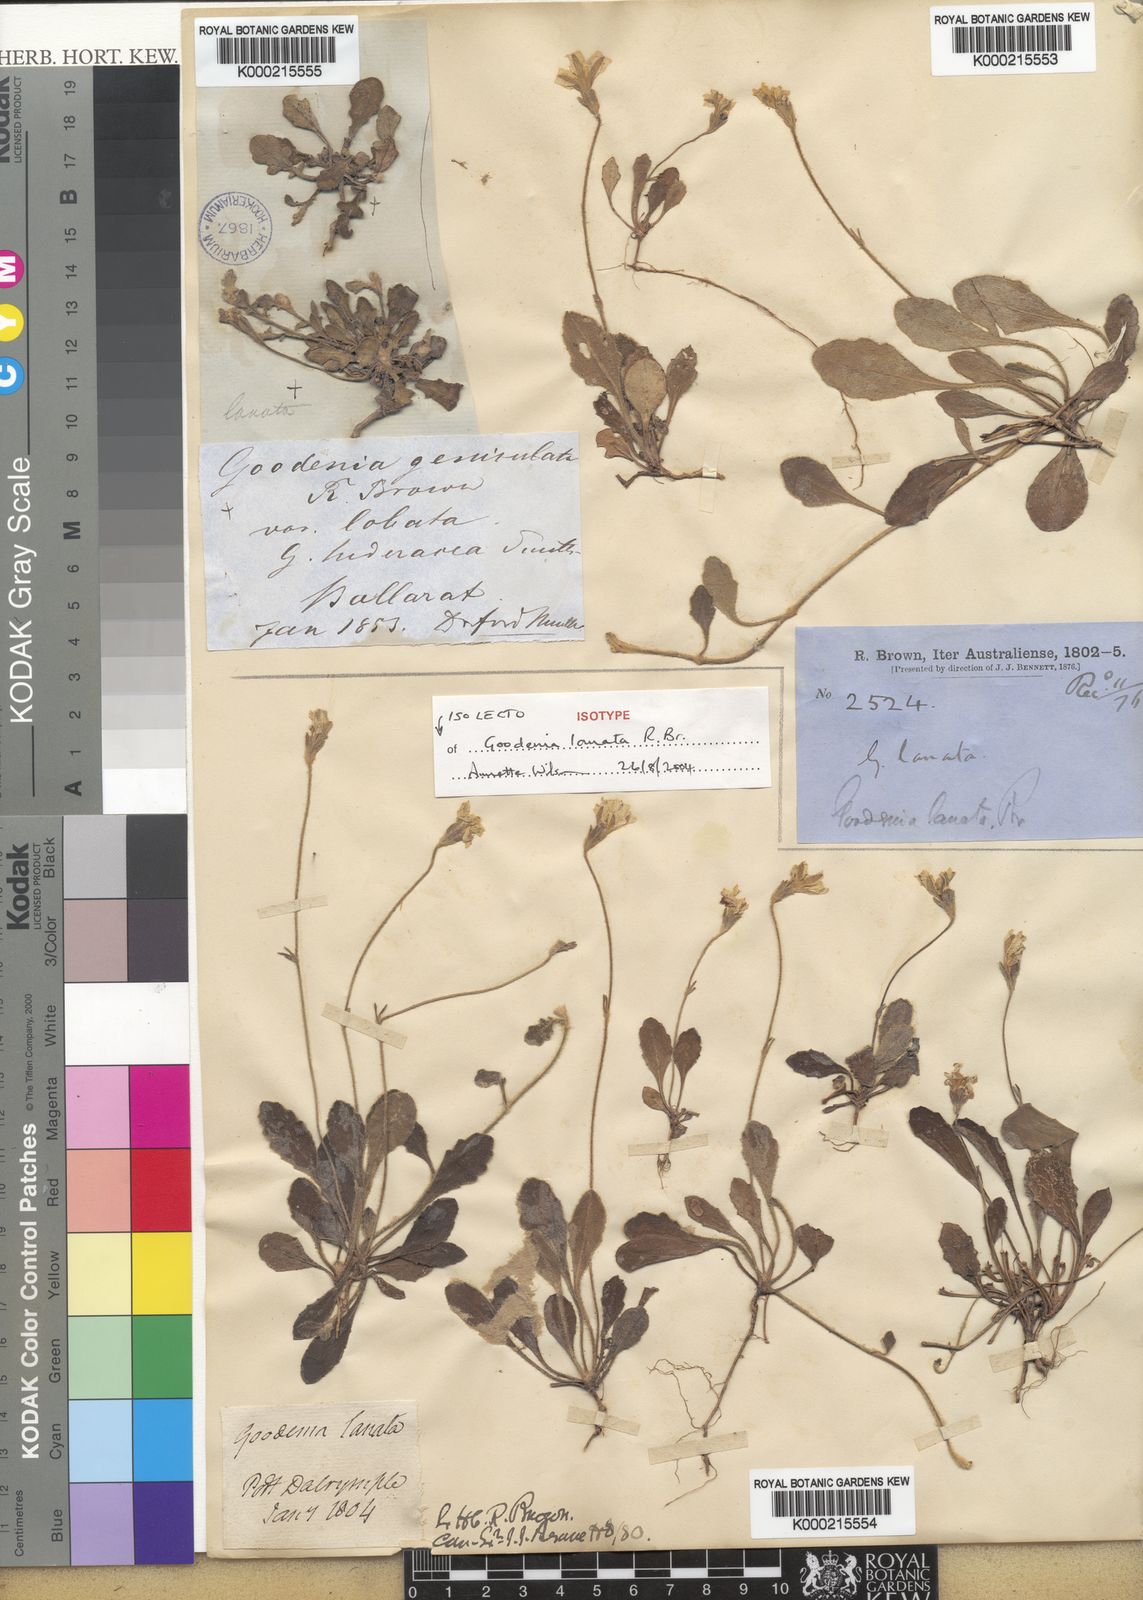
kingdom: Plantae
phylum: Tracheophyta
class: Magnoliopsida
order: Asterales
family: Goodeniaceae
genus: Goodenia
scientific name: Goodenia lanata
